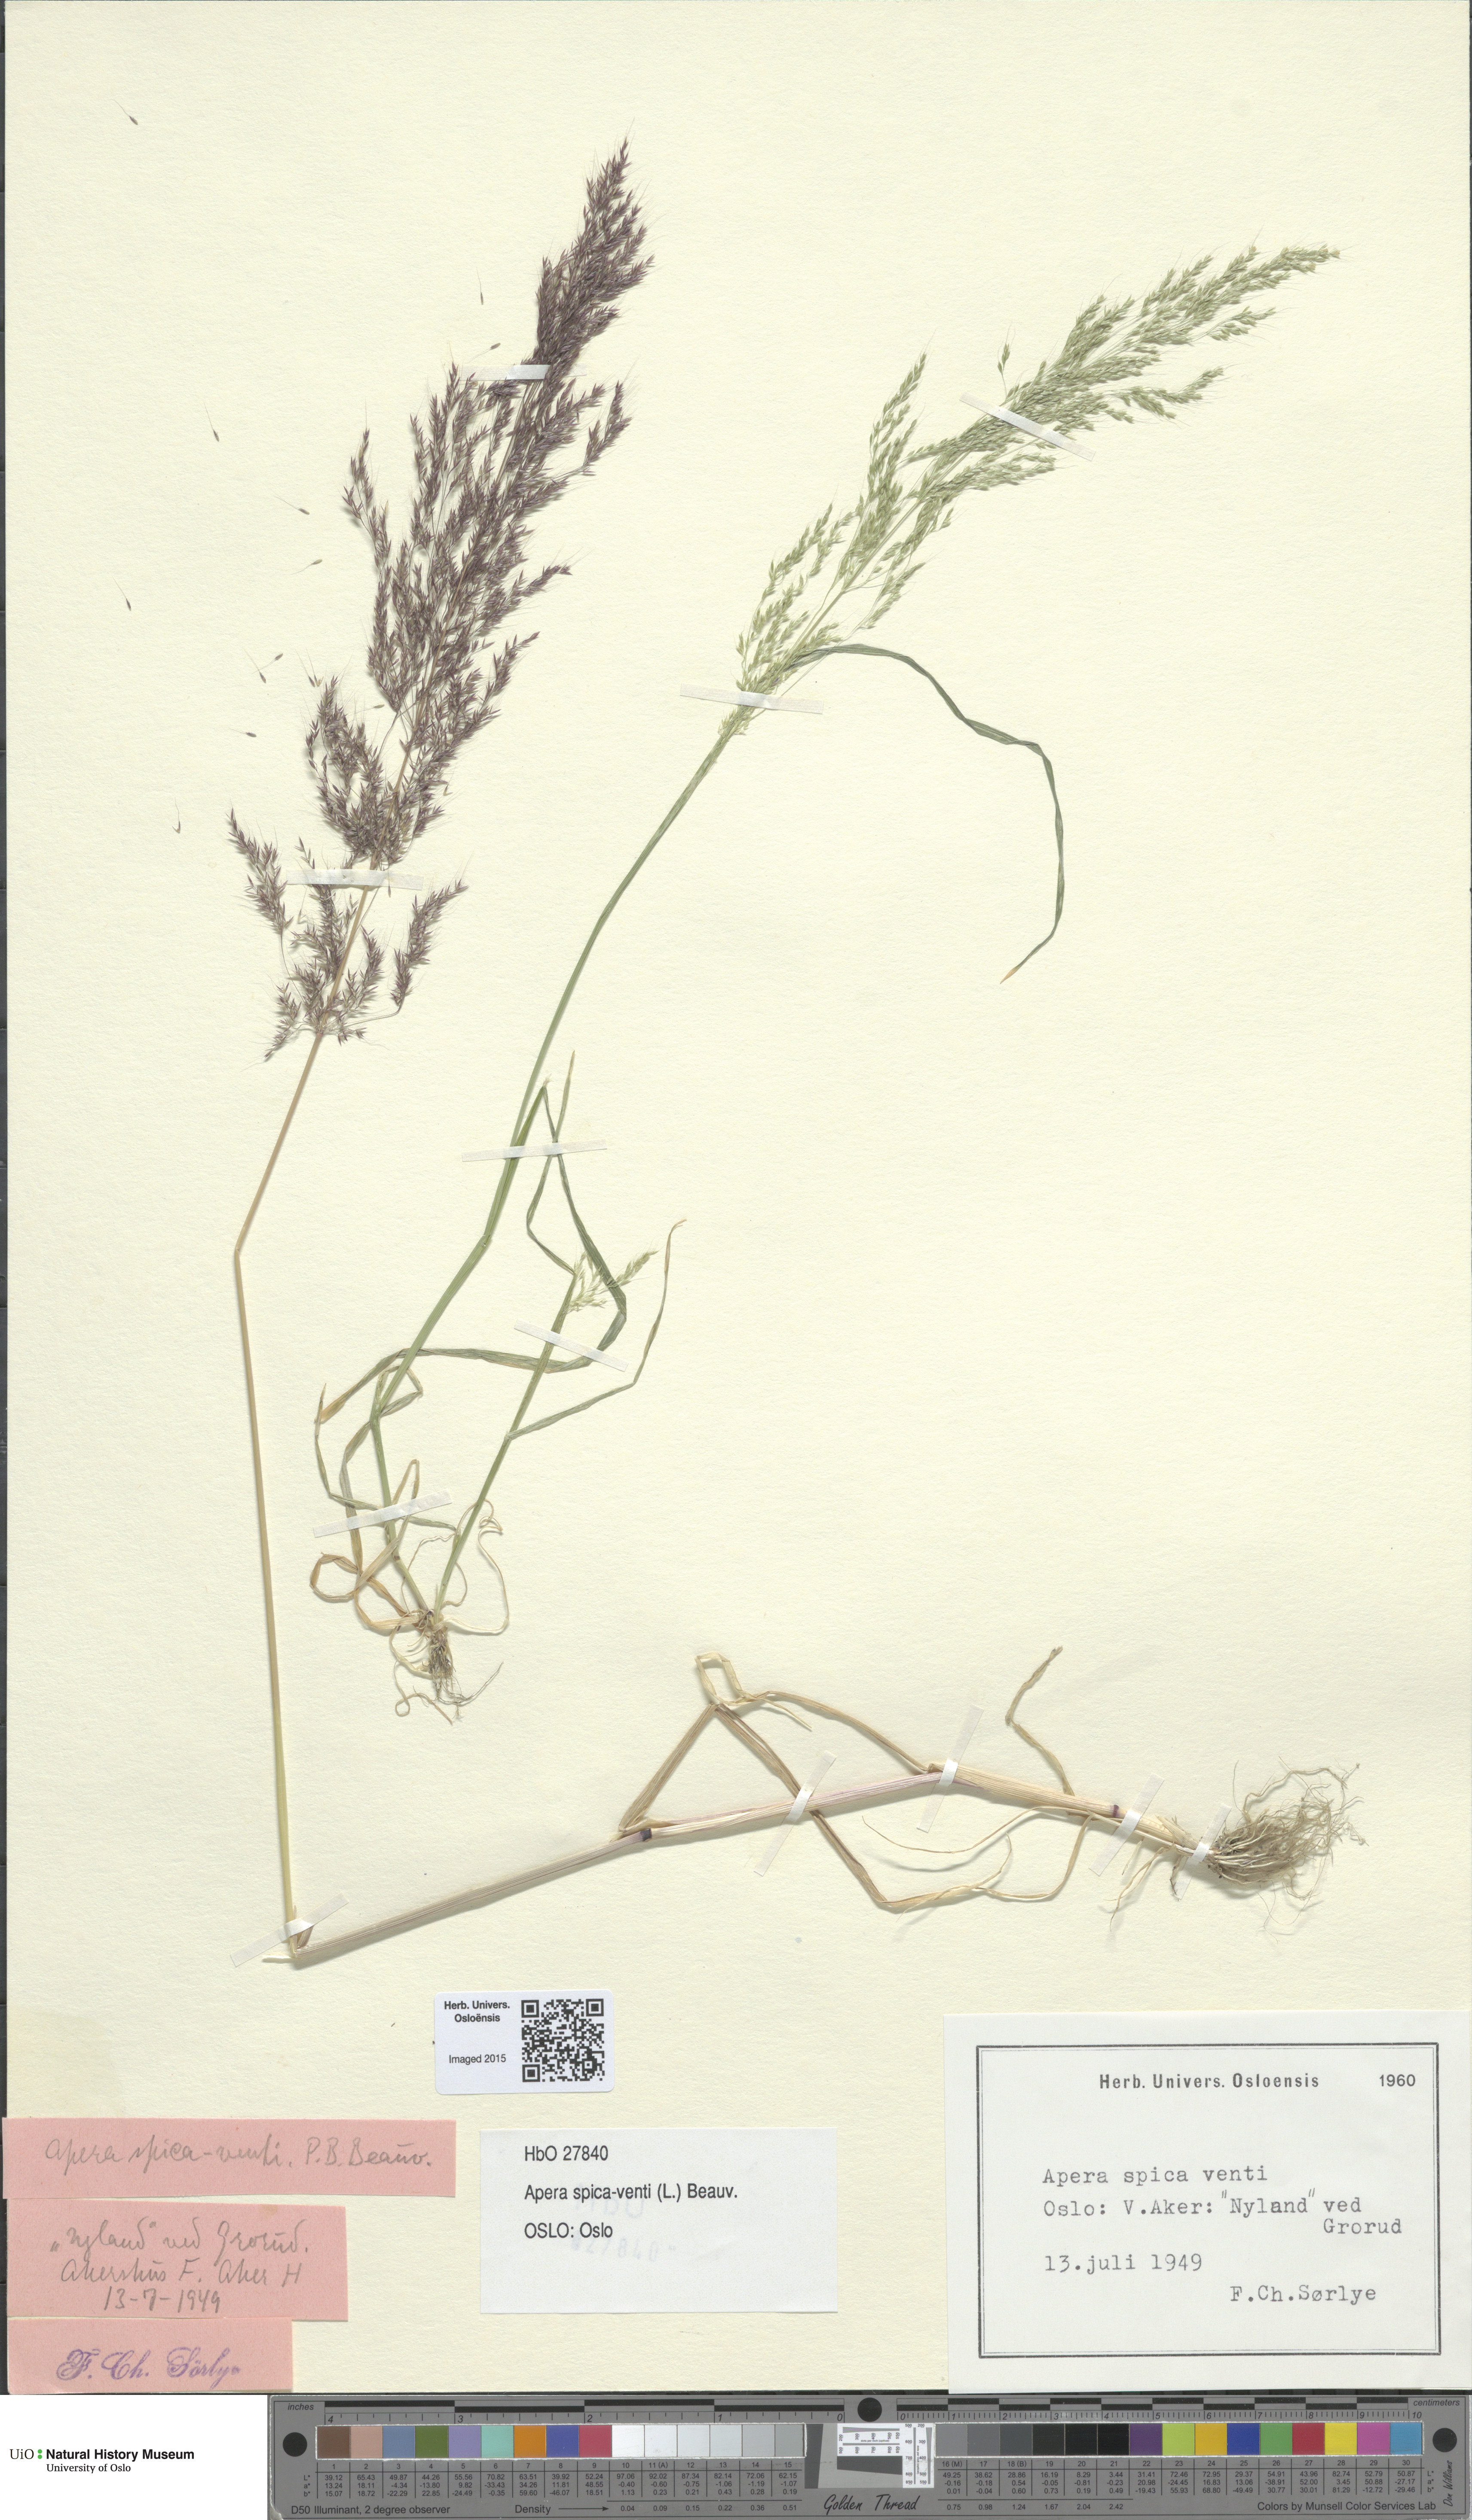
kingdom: Plantae
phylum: Tracheophyta
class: Liliopsida
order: Poales
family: Poaceae
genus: Apera
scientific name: Apera spica-venti
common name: Loose silky-bent
